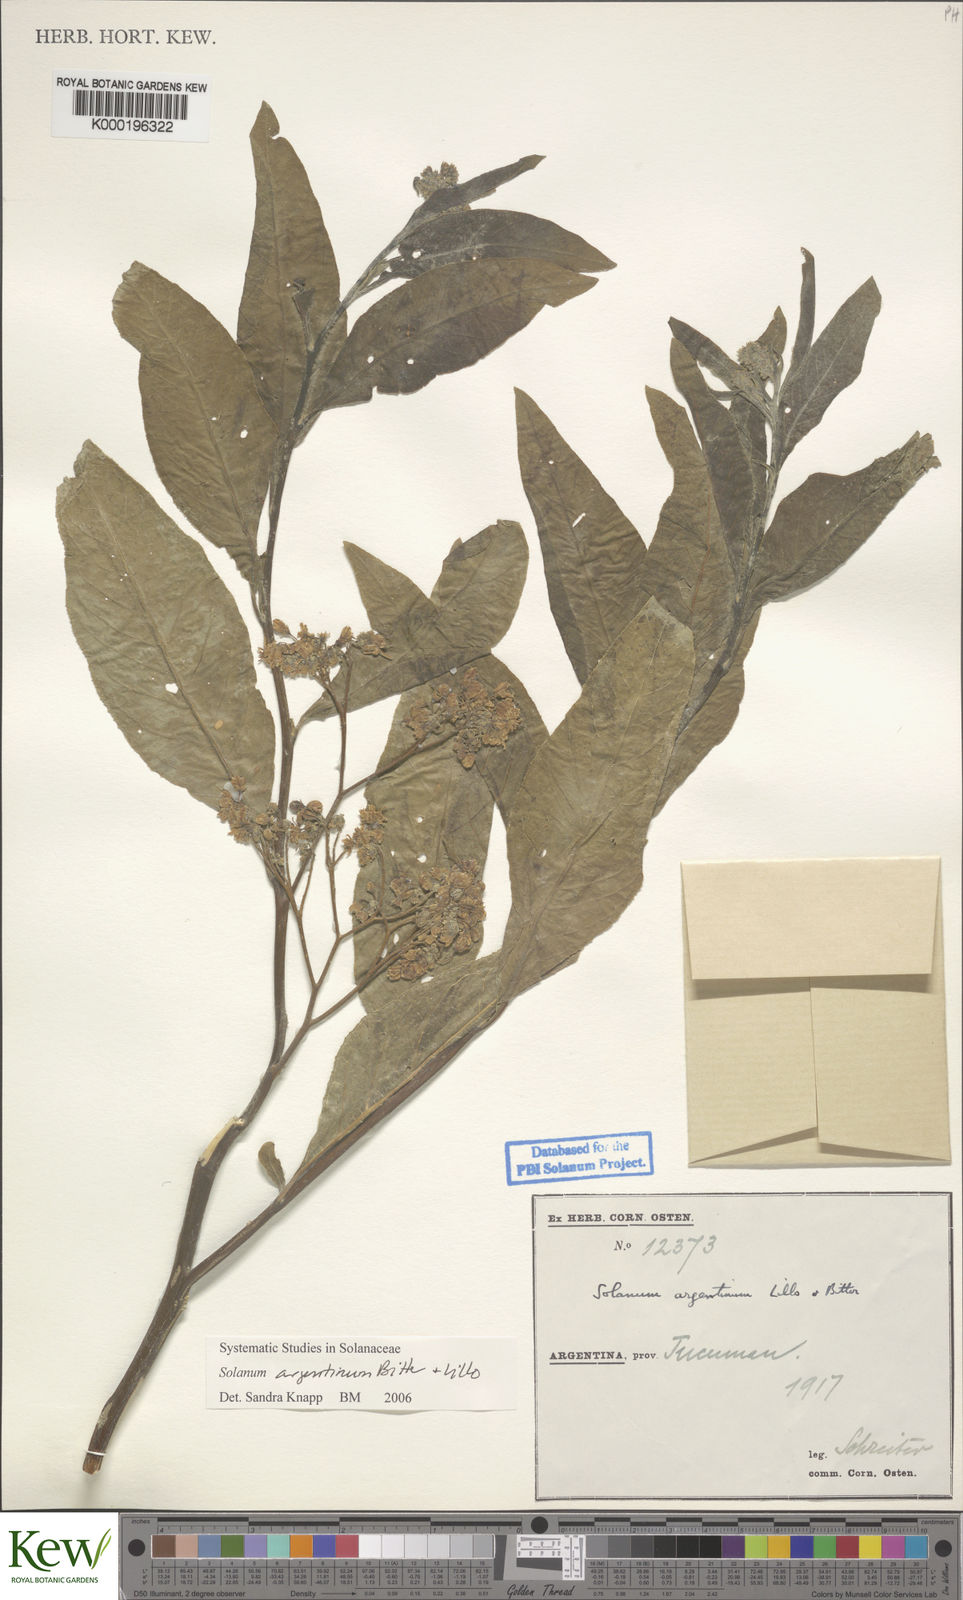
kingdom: Plantae
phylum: Tracheophyta
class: Magnoliopsida
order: Solanales
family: Solanaceae
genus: Solanum
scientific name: Solanum argentinum
